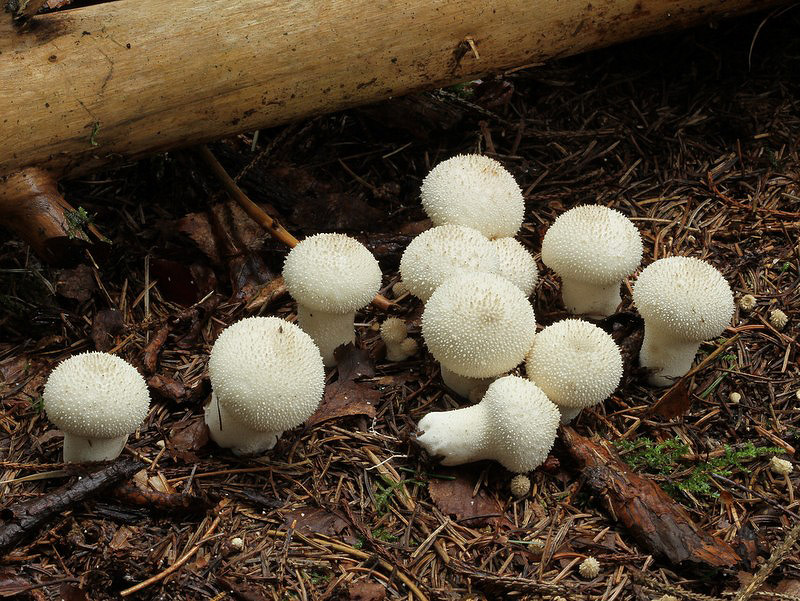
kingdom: Fungi
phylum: Basidiomycota
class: Agaricomycetes
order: Agaricales
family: Lycoperdaceae
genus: Lycoperdon
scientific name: Lycoperdon perlatum
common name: krystal-støvbold
